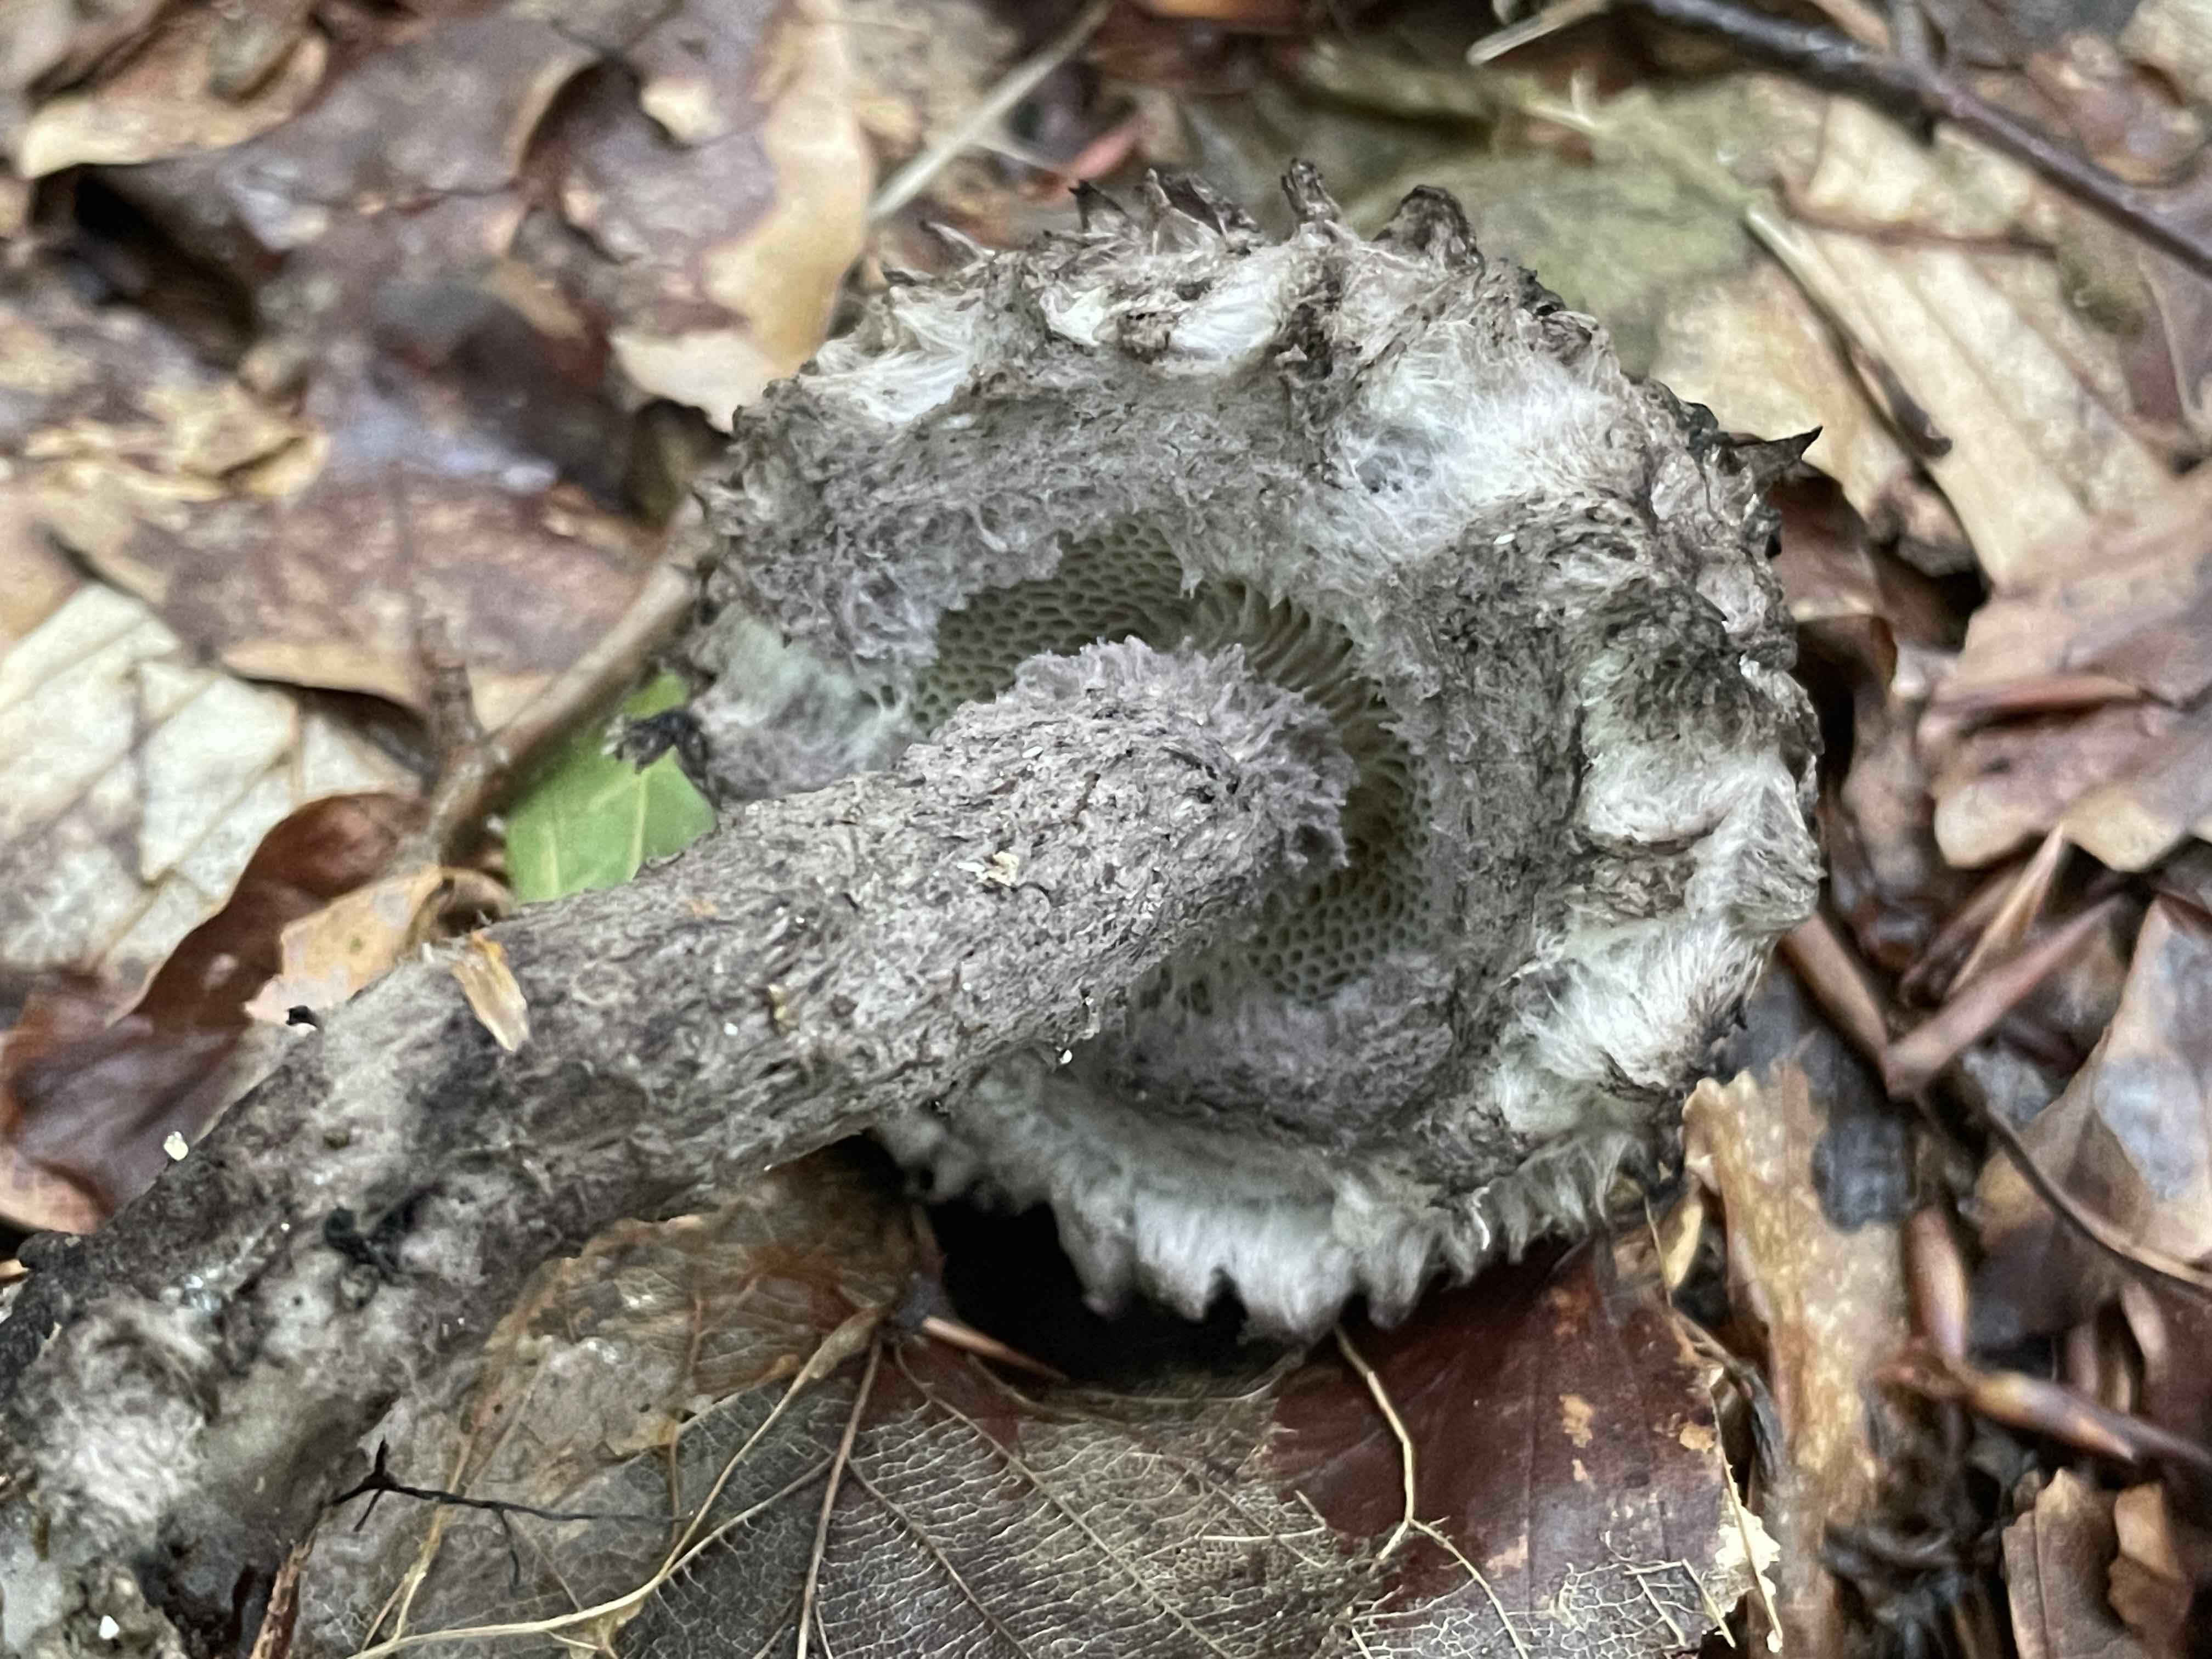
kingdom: Fungi
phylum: Basidiomycota
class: Agaricomycetes
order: Boletales
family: Boletaceae
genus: Strobilomyces
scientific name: Strobilomyces strobilaceus
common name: koglerørhat
